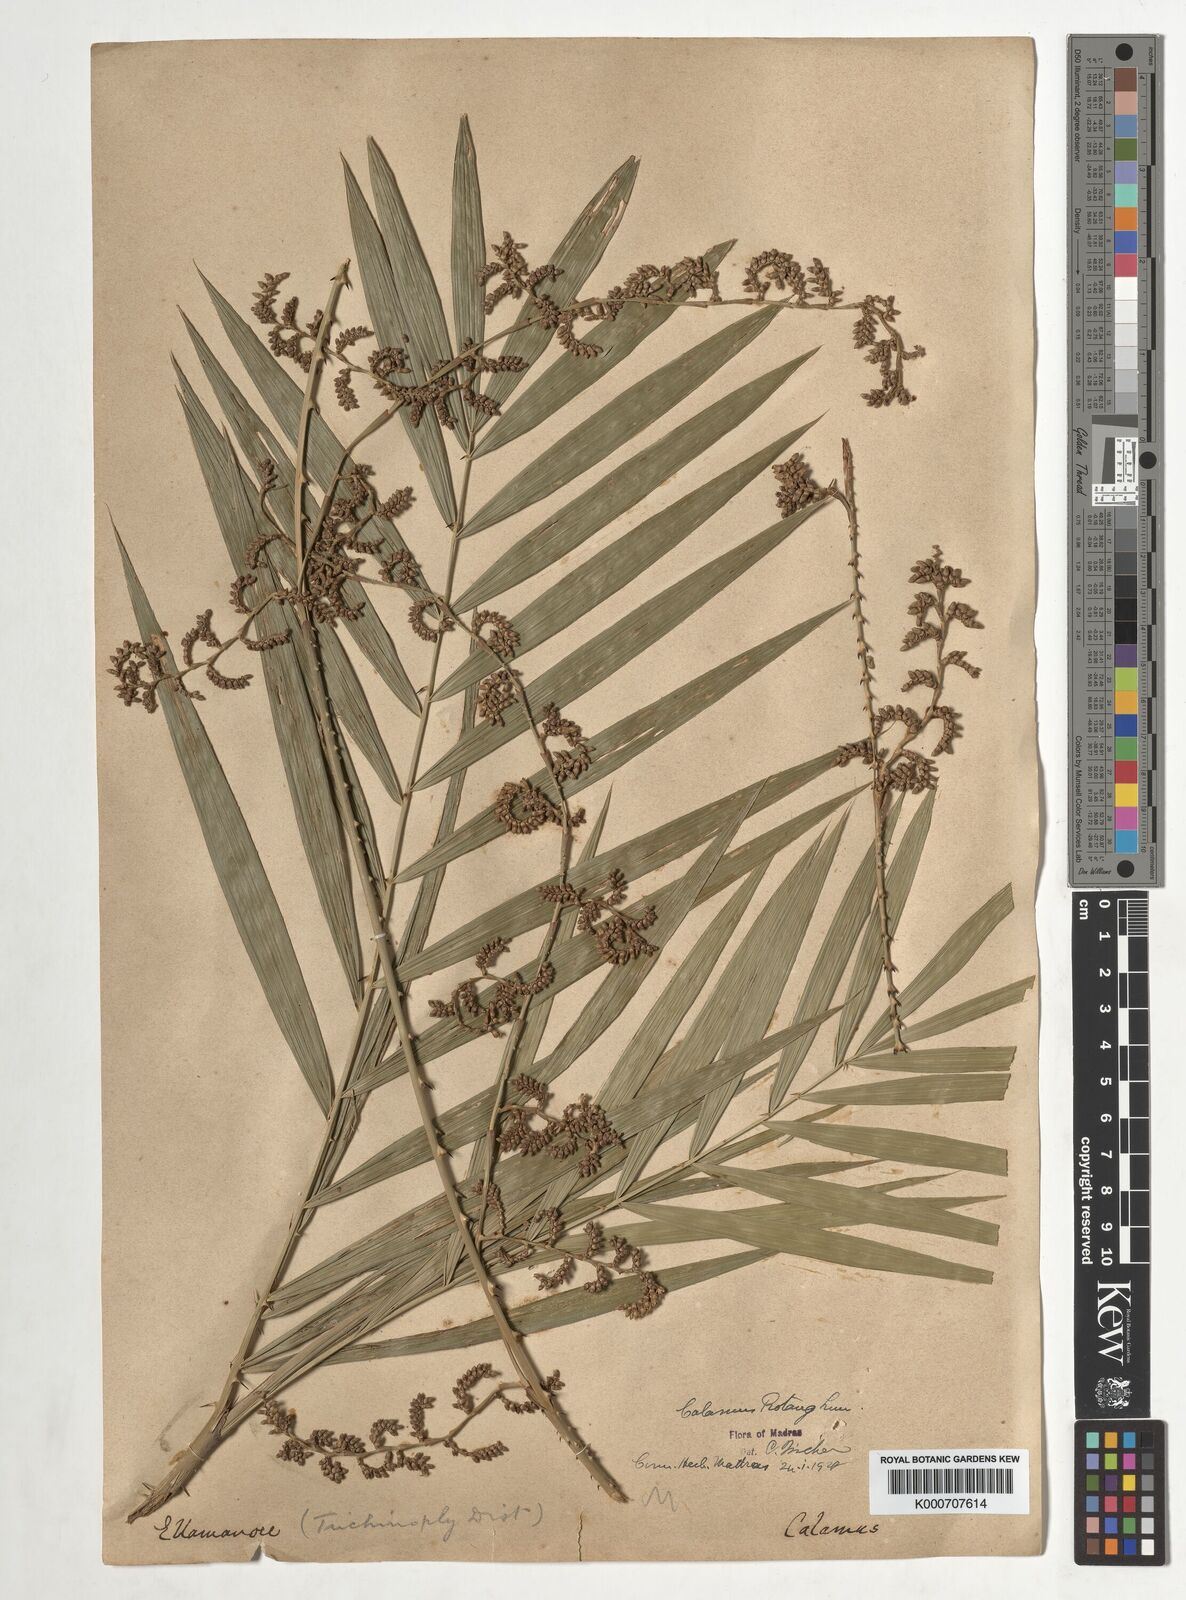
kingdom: Plantae
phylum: Tracheophyta
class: Liliopsida
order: Arecales
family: Arecaceae
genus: Calamus
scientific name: Calamus rotang
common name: Rattan cane
